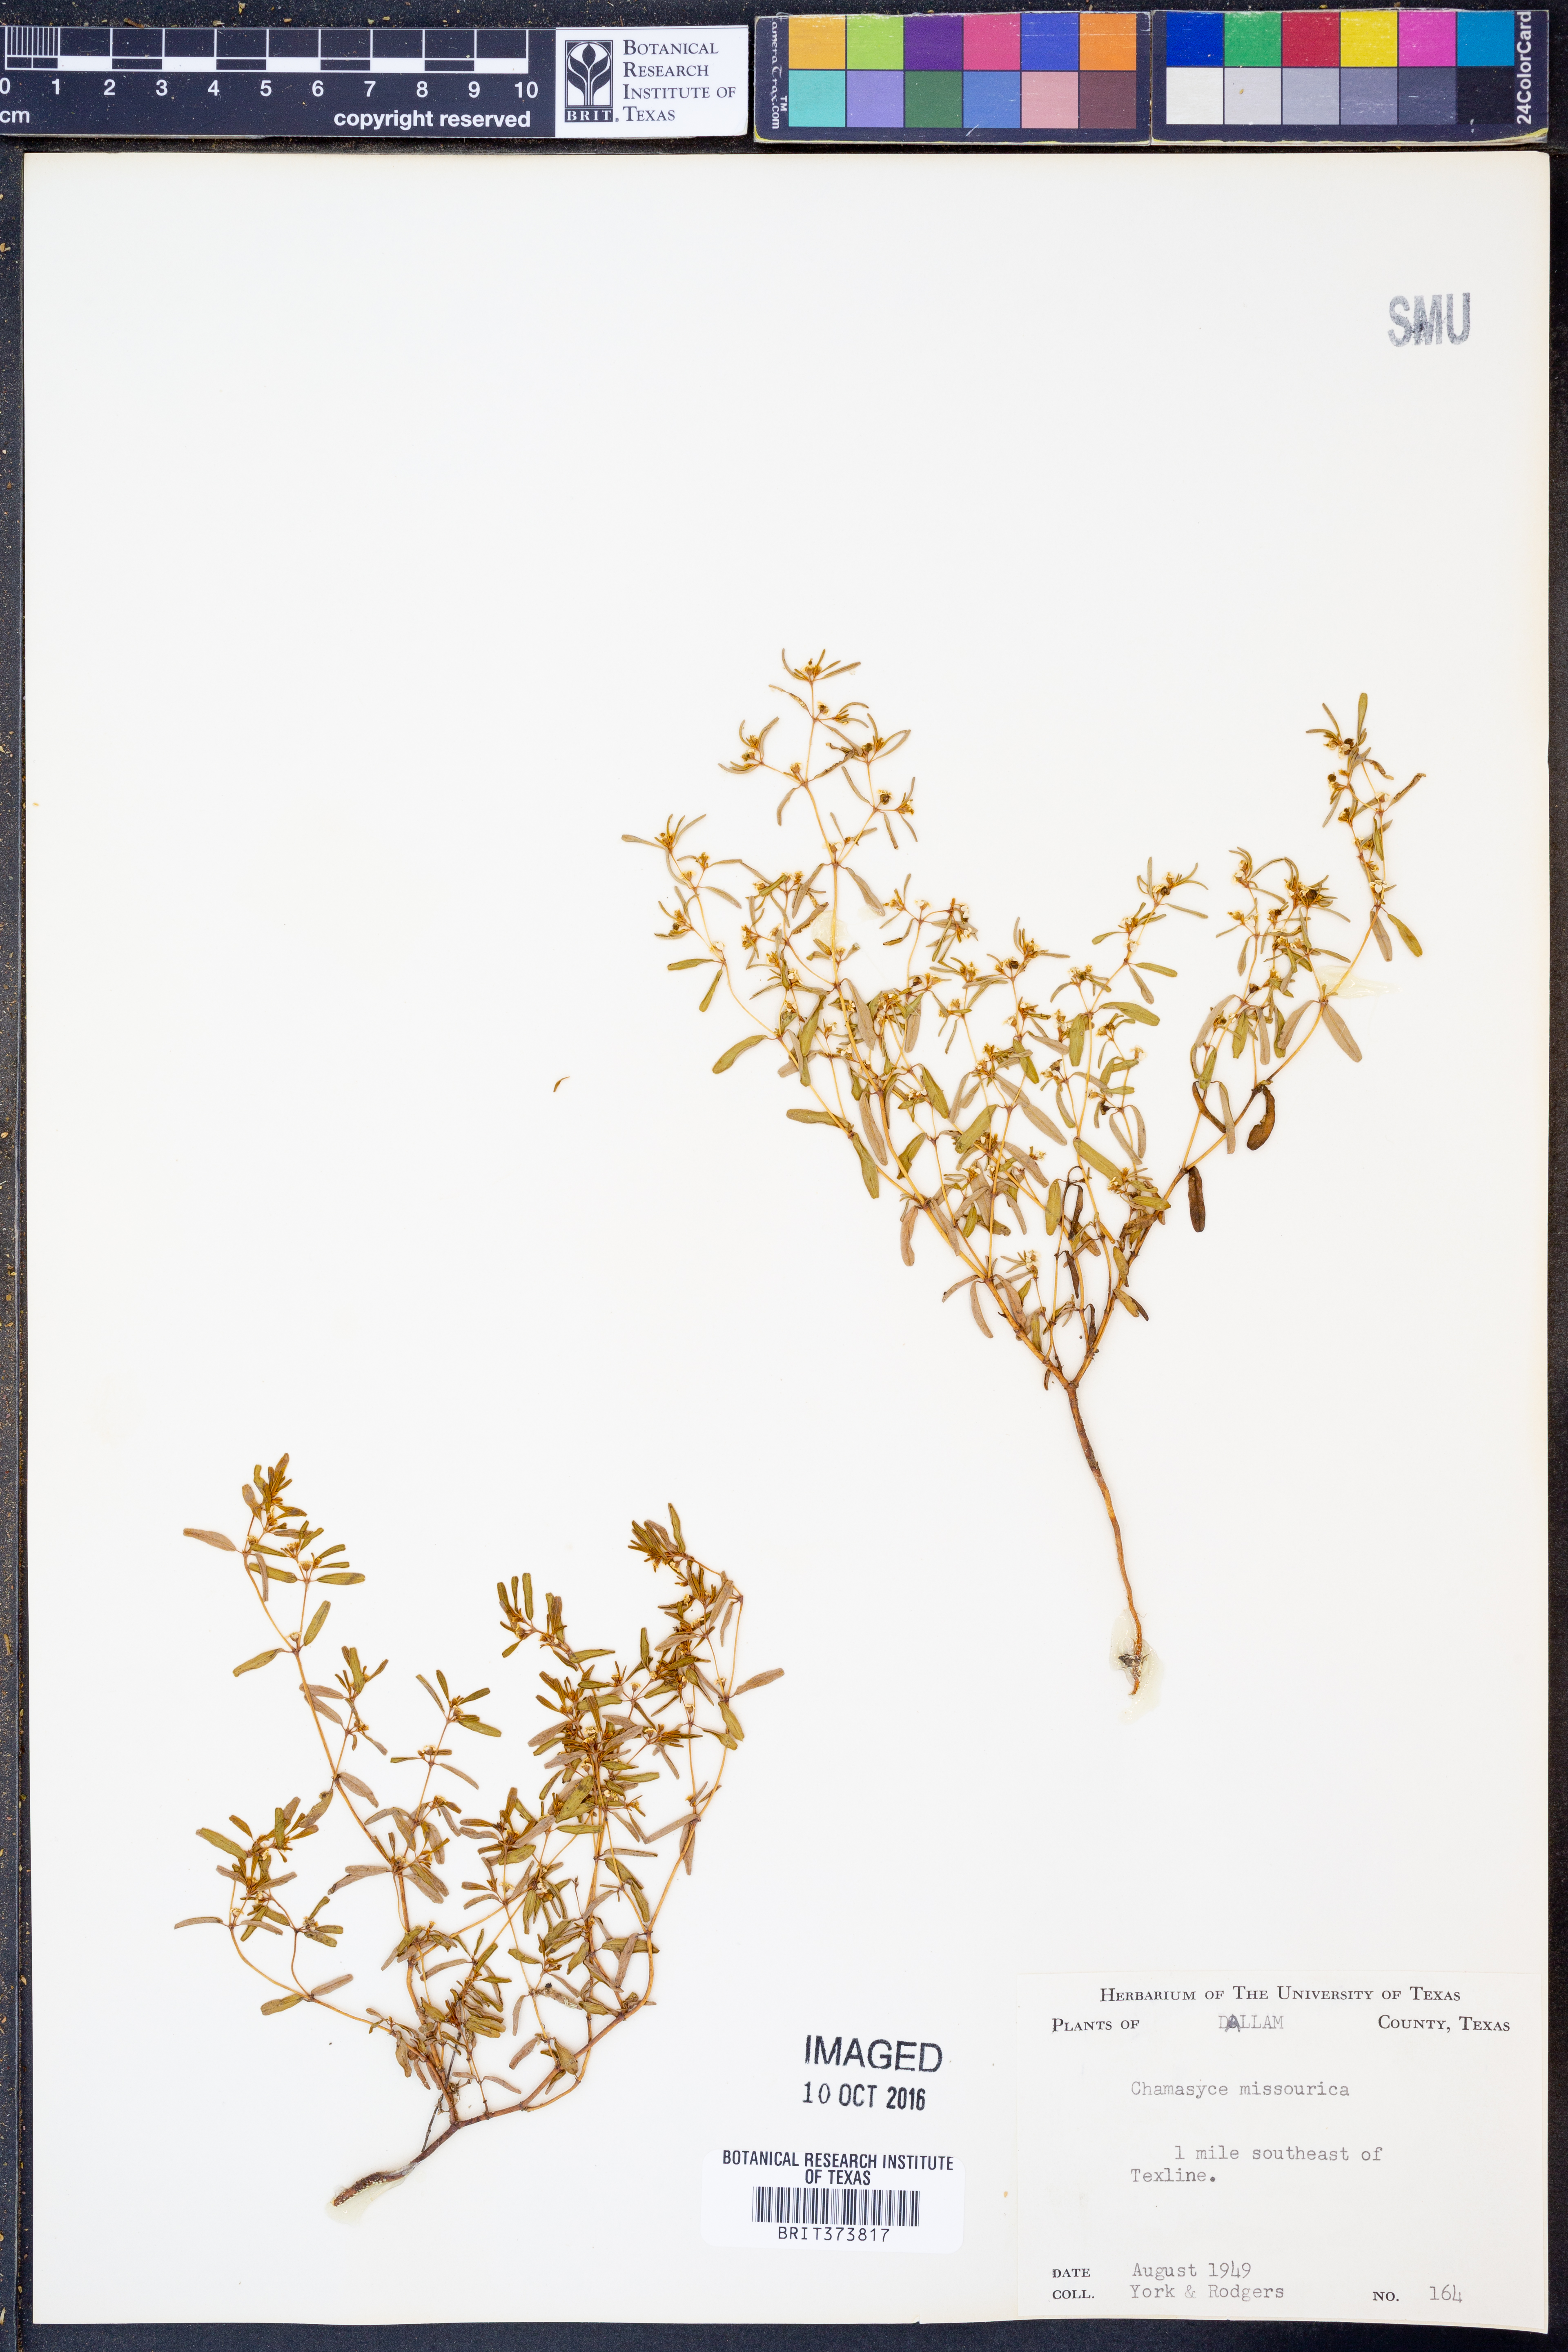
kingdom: Plantae
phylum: Tracheophyta
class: Magnoliopsida
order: Malpighiales
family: Euphorbiaceae
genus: Euphorbia
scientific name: Euphorbia missurica
